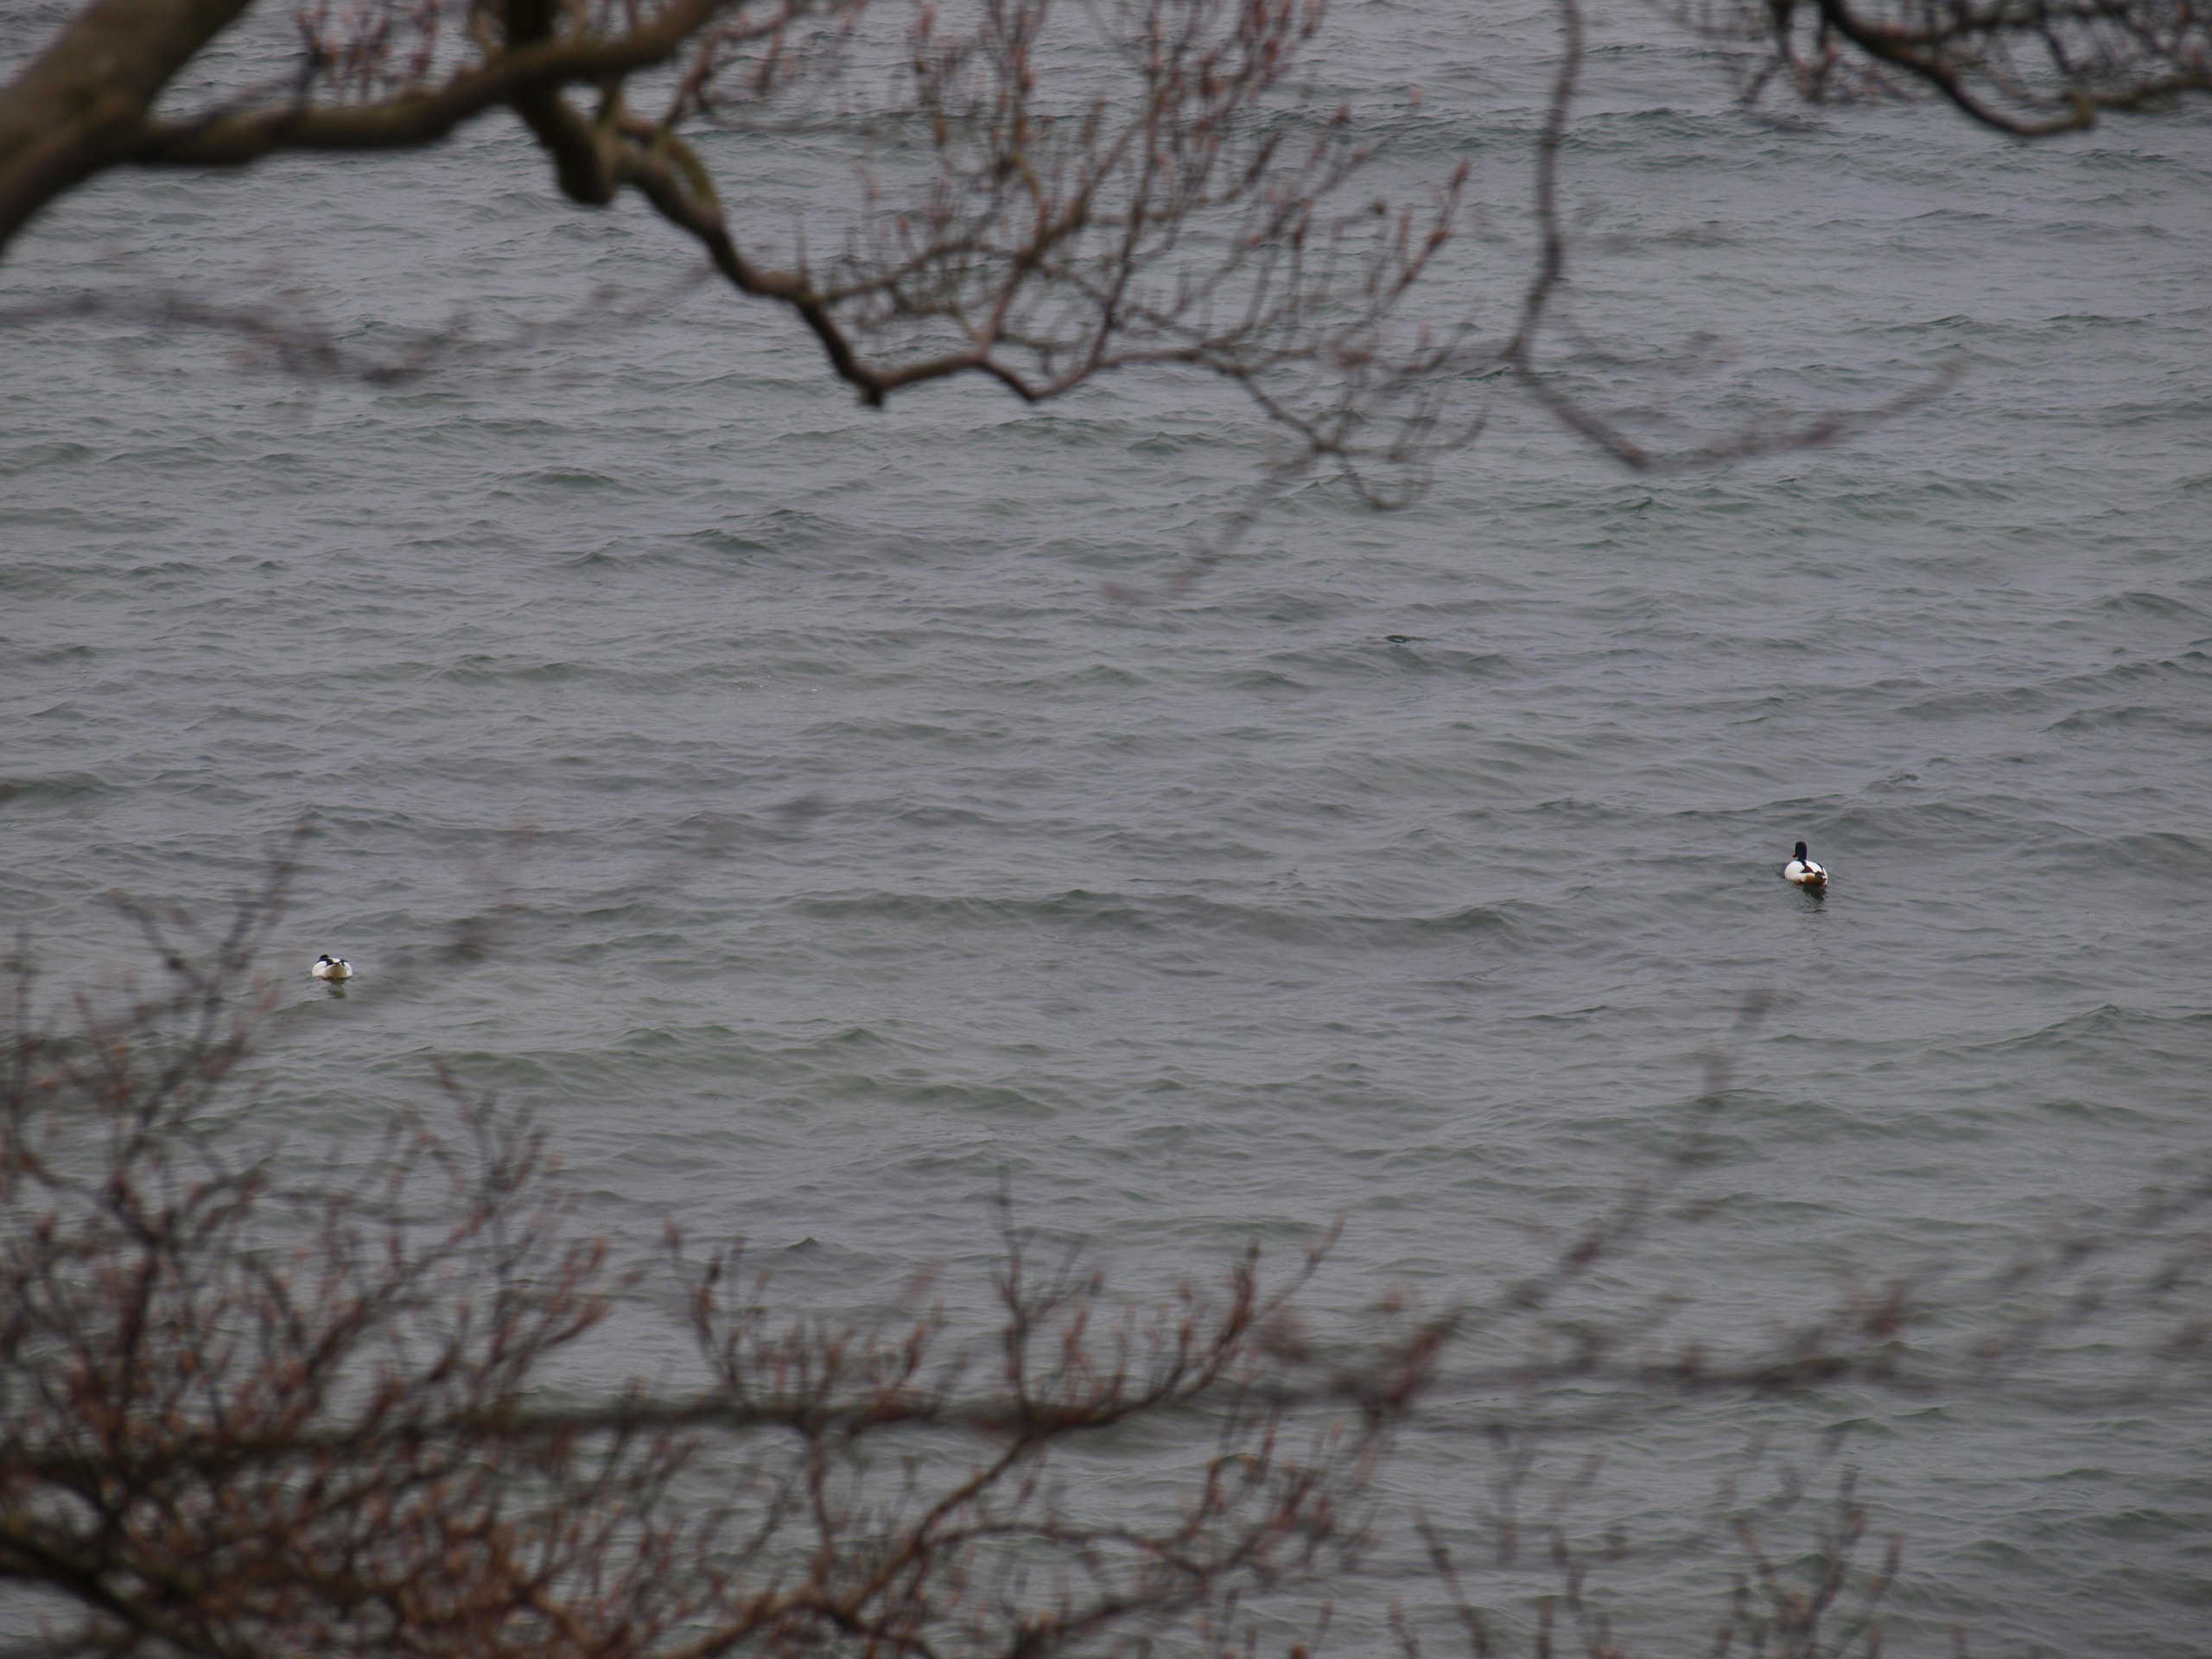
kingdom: Animalia
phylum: Chordata
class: Aves
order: Anseriformes
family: Anatidae
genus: Tadorna
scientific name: Tadorna tadorna
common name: Gravand
